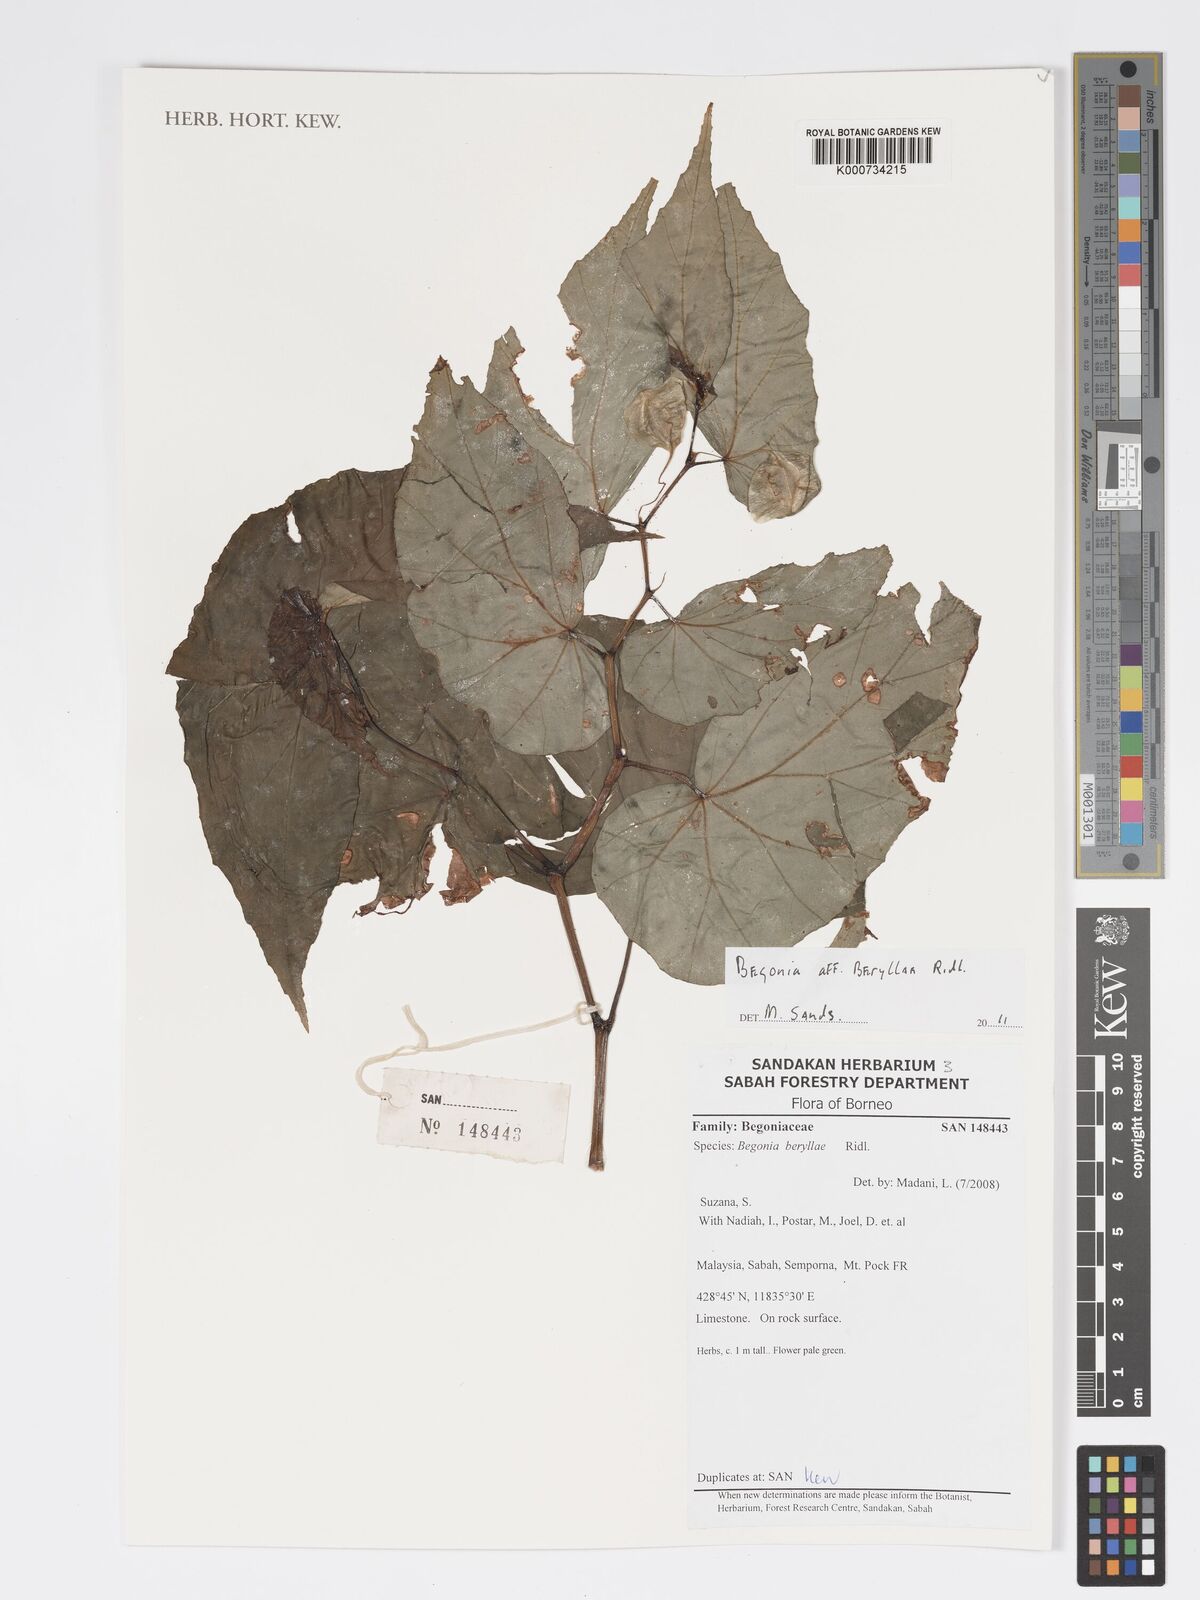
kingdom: Plantae
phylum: Tracheophyta
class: Magnoliopsida
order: Cucurbitales
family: Begoniaceae
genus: Begonia
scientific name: Begonia beryllae
